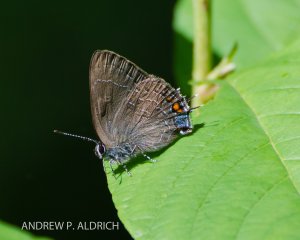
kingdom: Animalia
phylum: Arthropoda
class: Insecta
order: Lepidoptera
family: Lycaenidae
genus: Satyrium
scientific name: Satyrium calanus
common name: Banded Hairstreak
